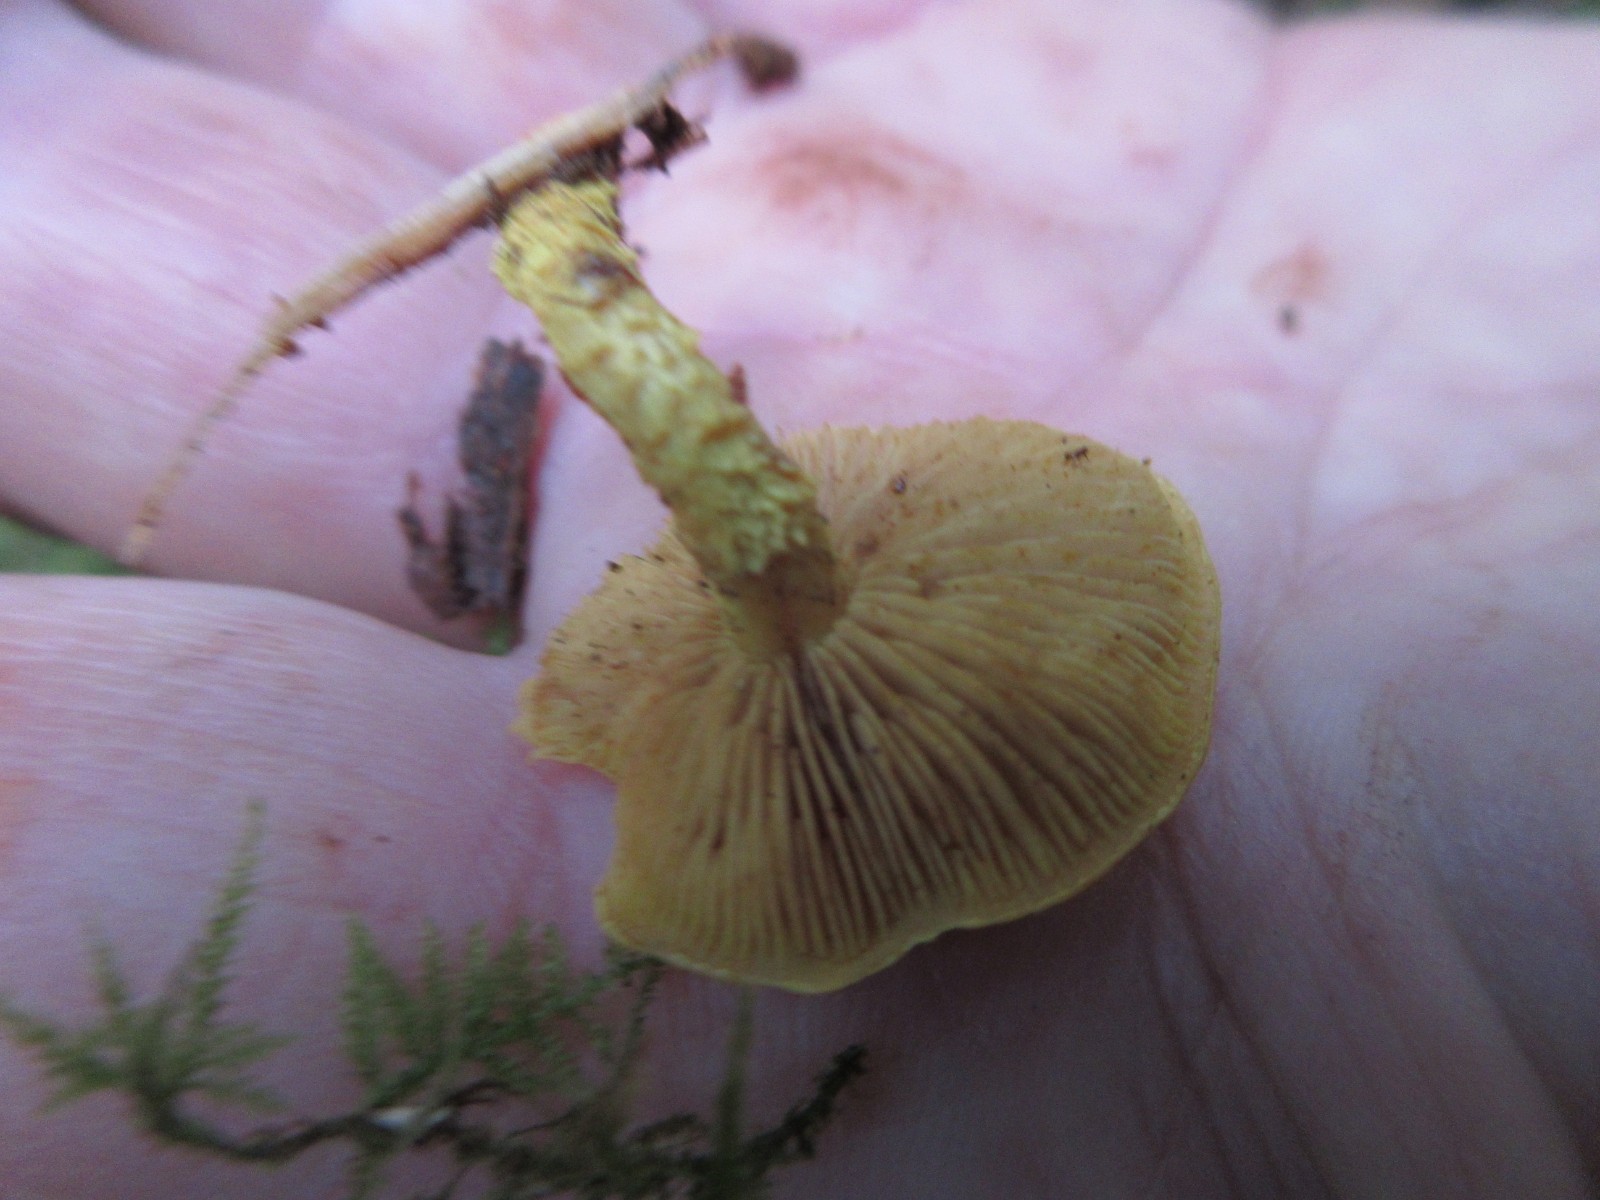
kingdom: Fungi
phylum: Basidiomycota
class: Agaricomycetes
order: Agaricales
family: Strophariaceae
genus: Pholiota
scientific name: Pholiota flammans
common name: flamme-skælhat
